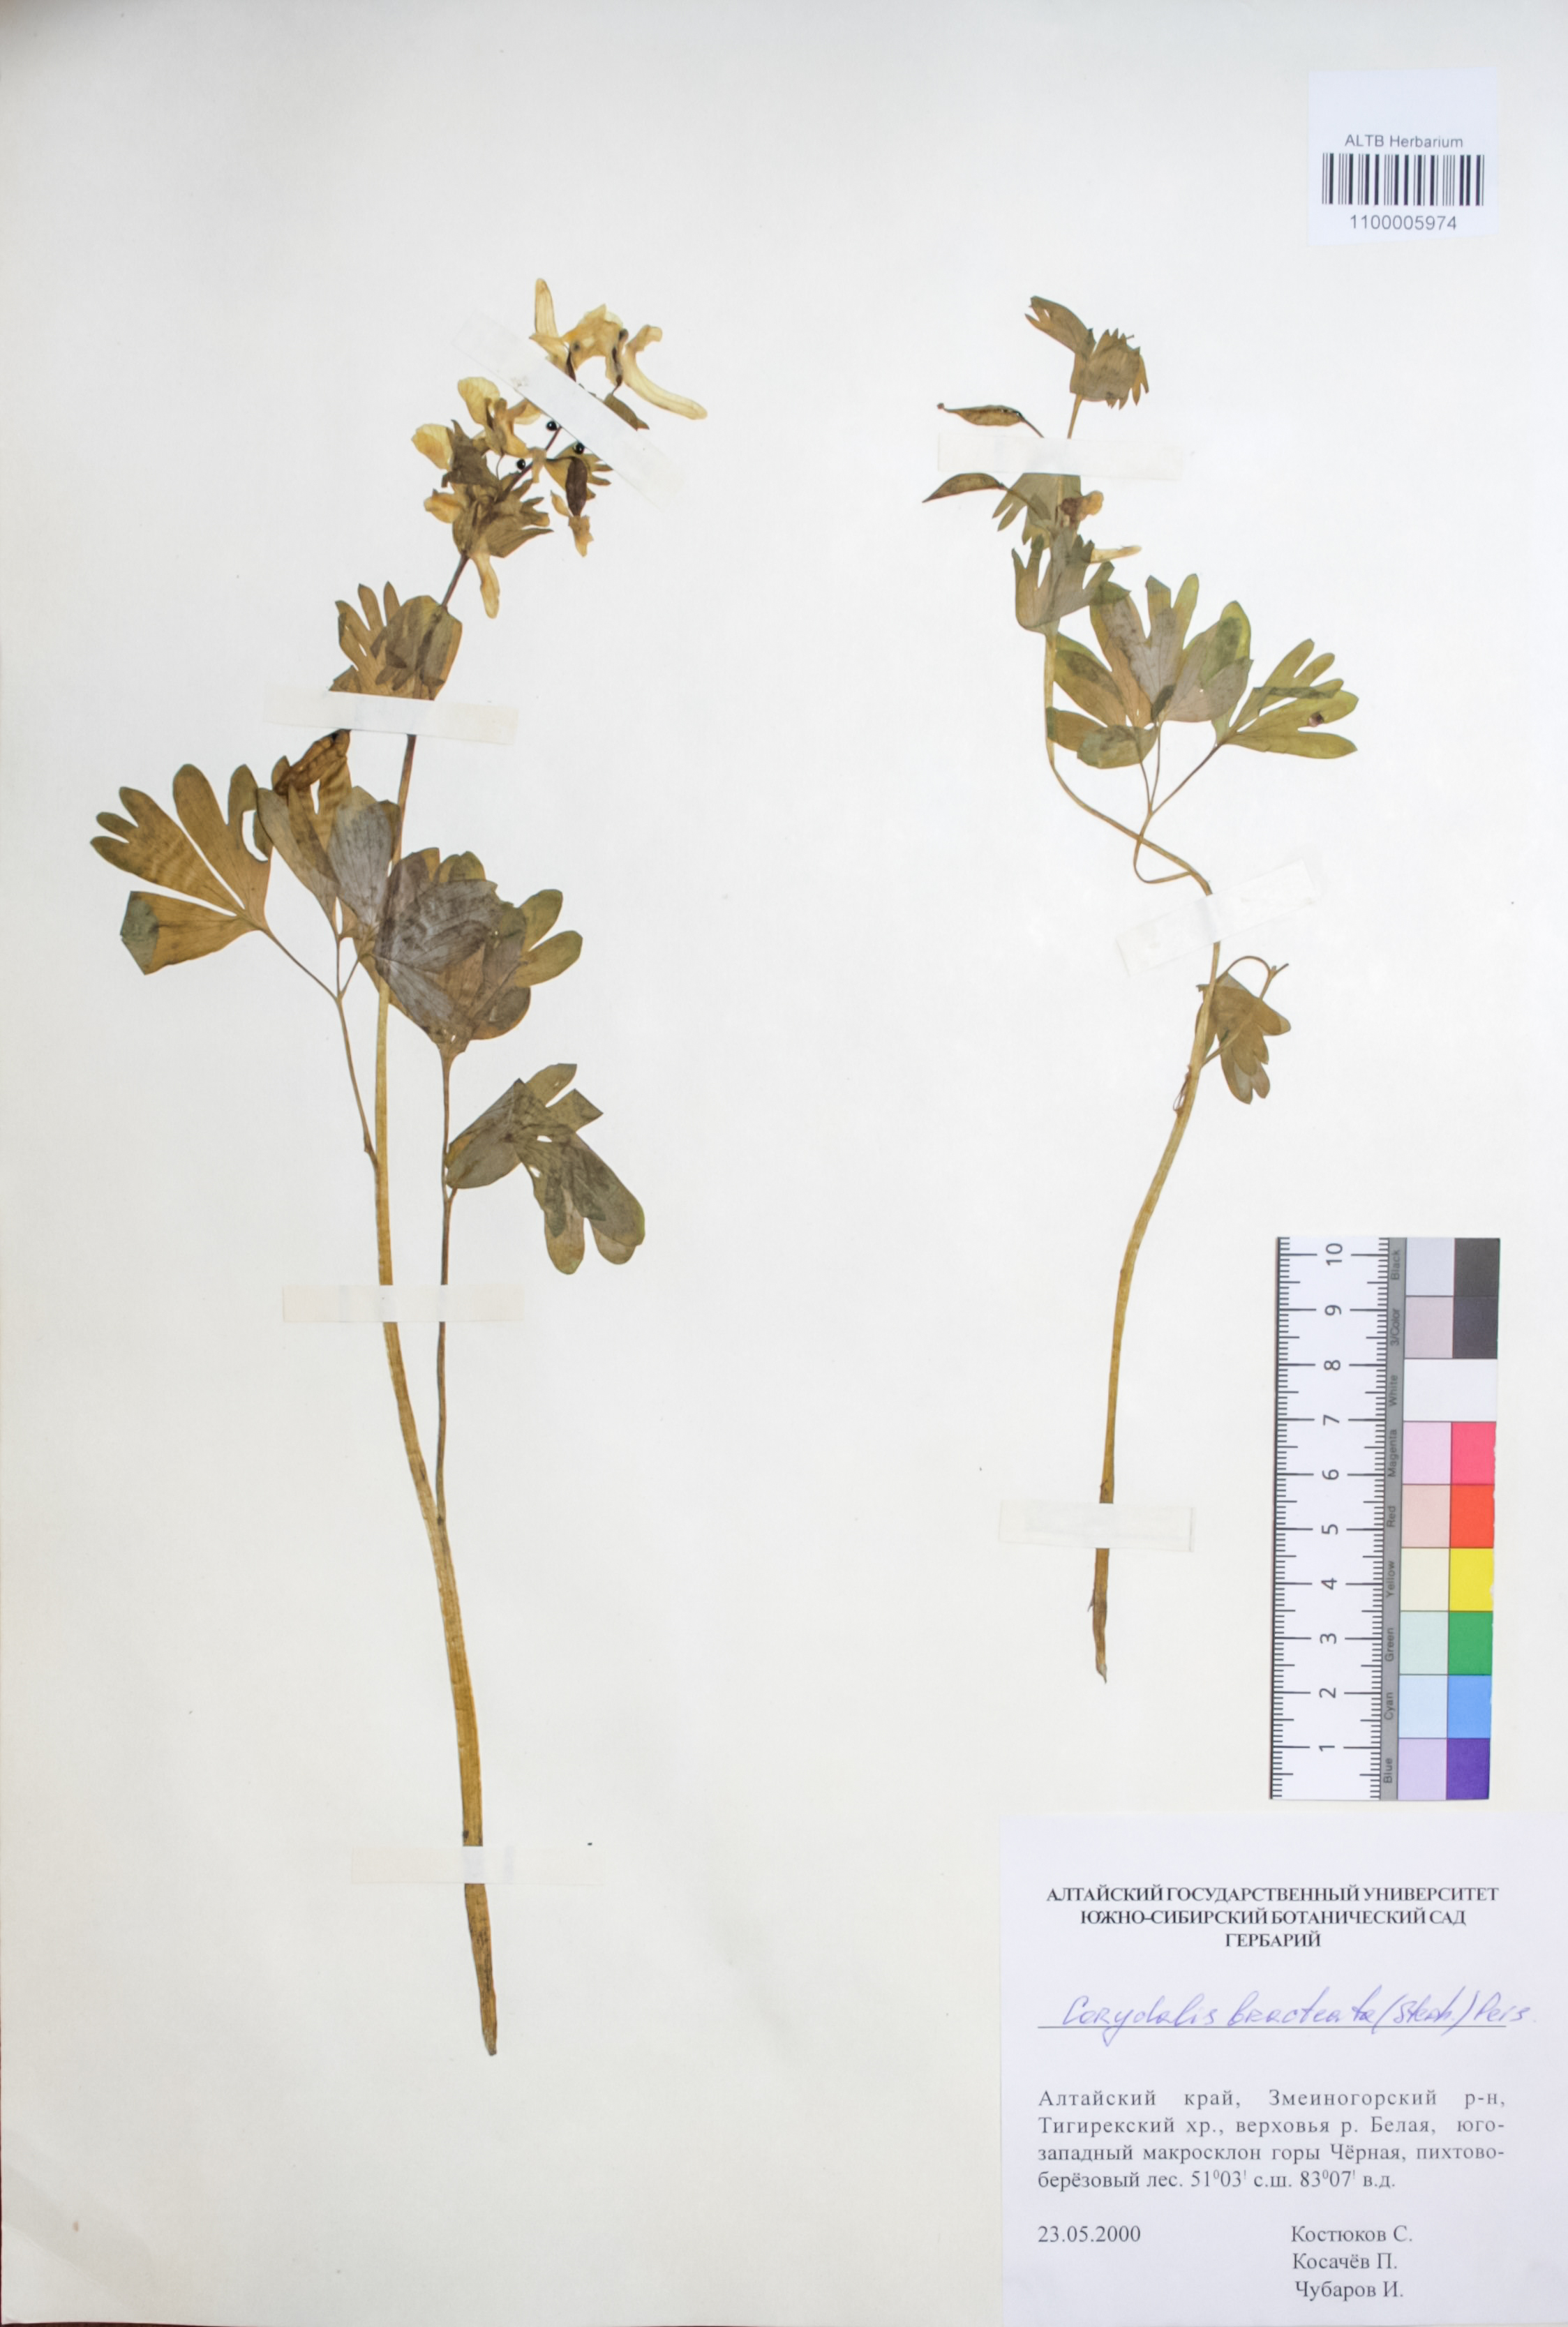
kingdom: Plantae
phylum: Tracheophyta
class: Magnoliopsida
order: Ranunculales
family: Papaveraceae
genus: Corydalis
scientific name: Corydalis bracteata
